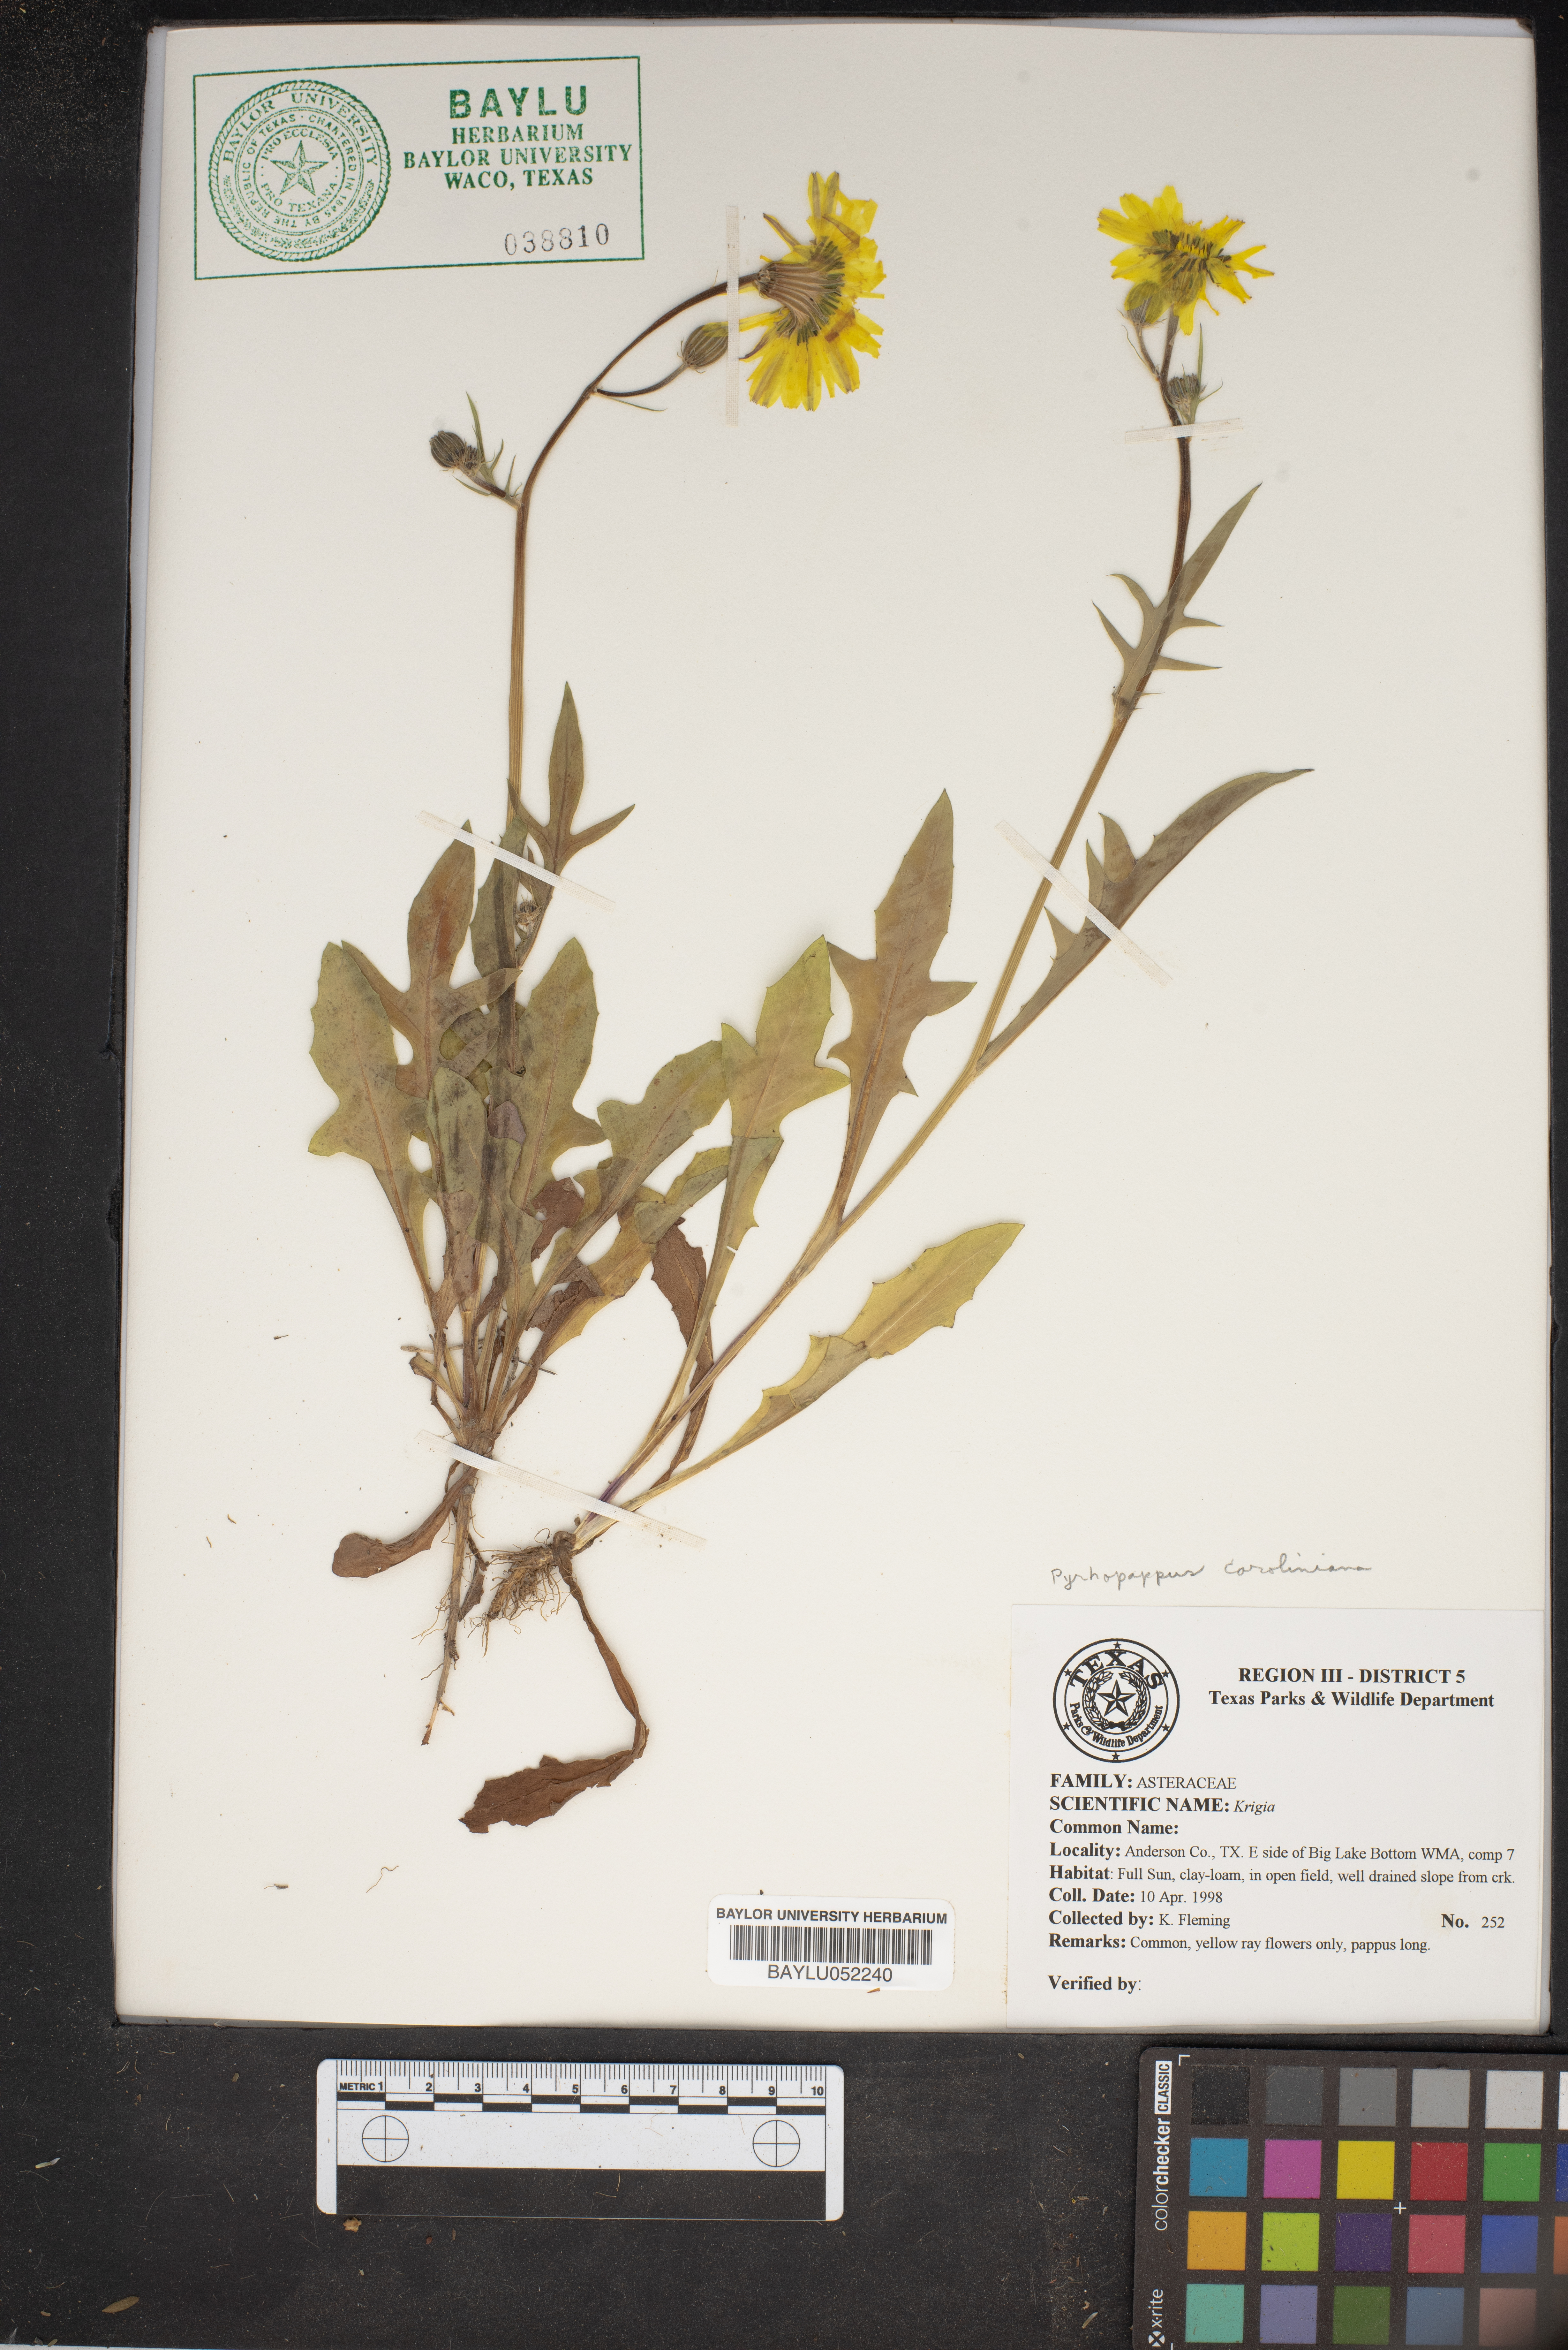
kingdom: Plantae
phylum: Tracheophyta
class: Magnoliopsida
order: Asterales
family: Asteraceae
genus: Krigia
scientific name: Krigia
